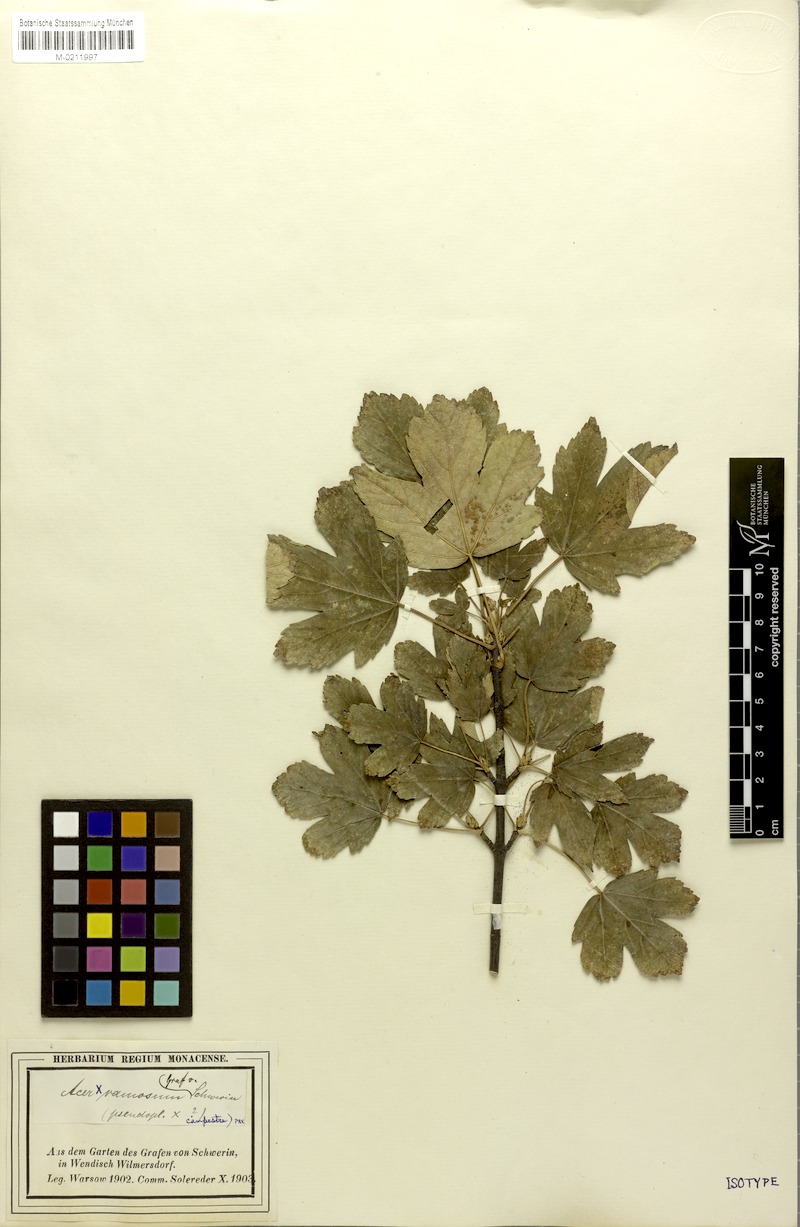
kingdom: Plantae
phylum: Tracheophyta
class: Magnoliopsida
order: Sapindales
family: Sapindaceae
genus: Acer
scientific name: Acer ramosum
